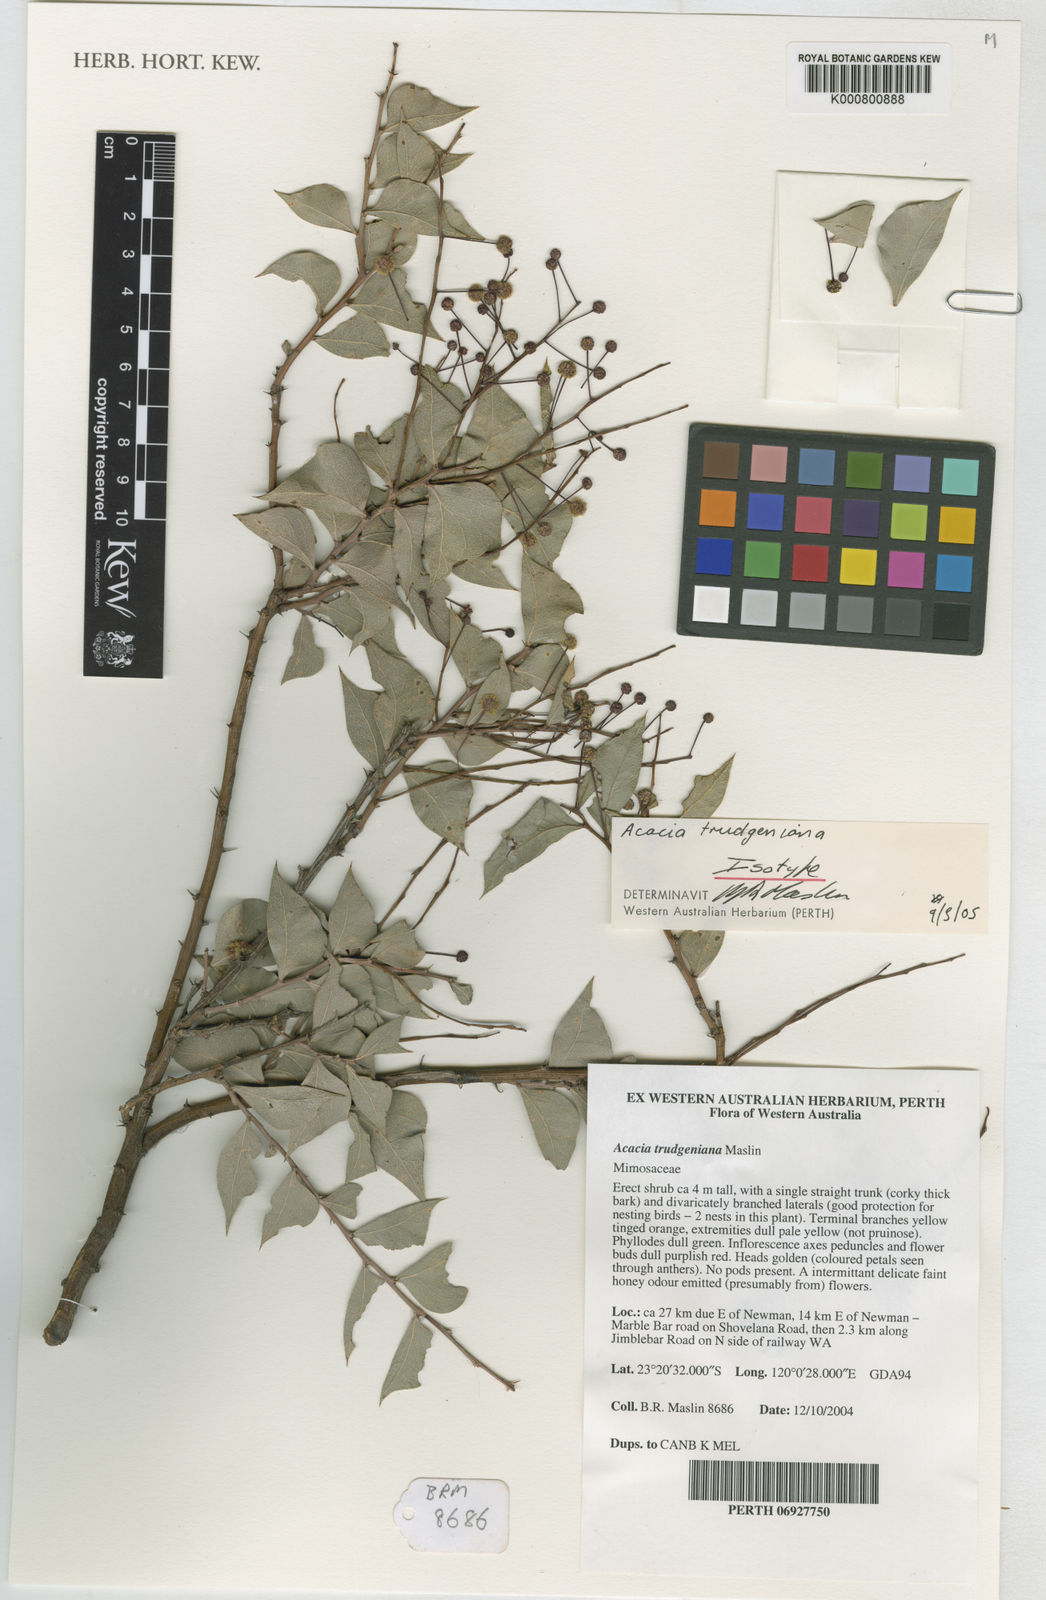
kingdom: Plantae
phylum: Tracheophyta
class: Magnoliopsida
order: Fabales
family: Fabaceae
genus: Acacia
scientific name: Acacia trudgeniana
